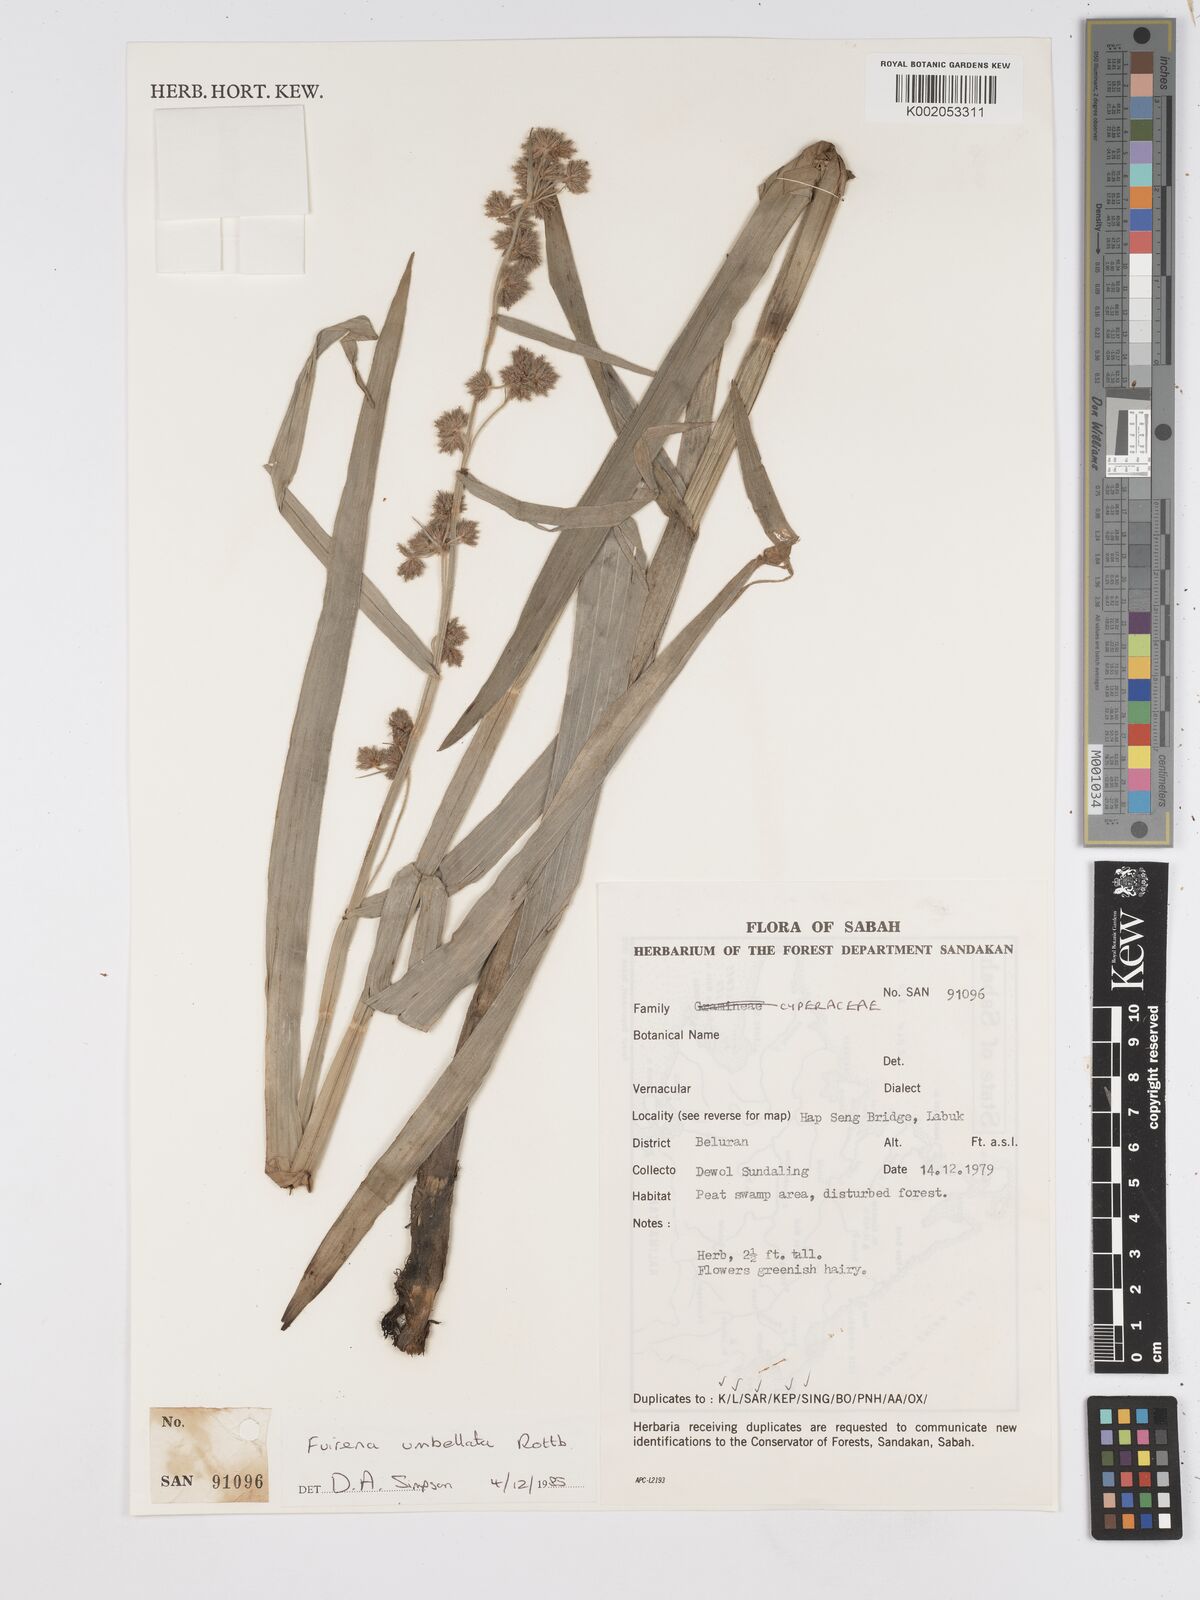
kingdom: Plantae
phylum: Tracheophyta
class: Liliopsida
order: Poales
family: Cyperaceae
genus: Fuirena
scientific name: Fuirena umbellata
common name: Yefen
